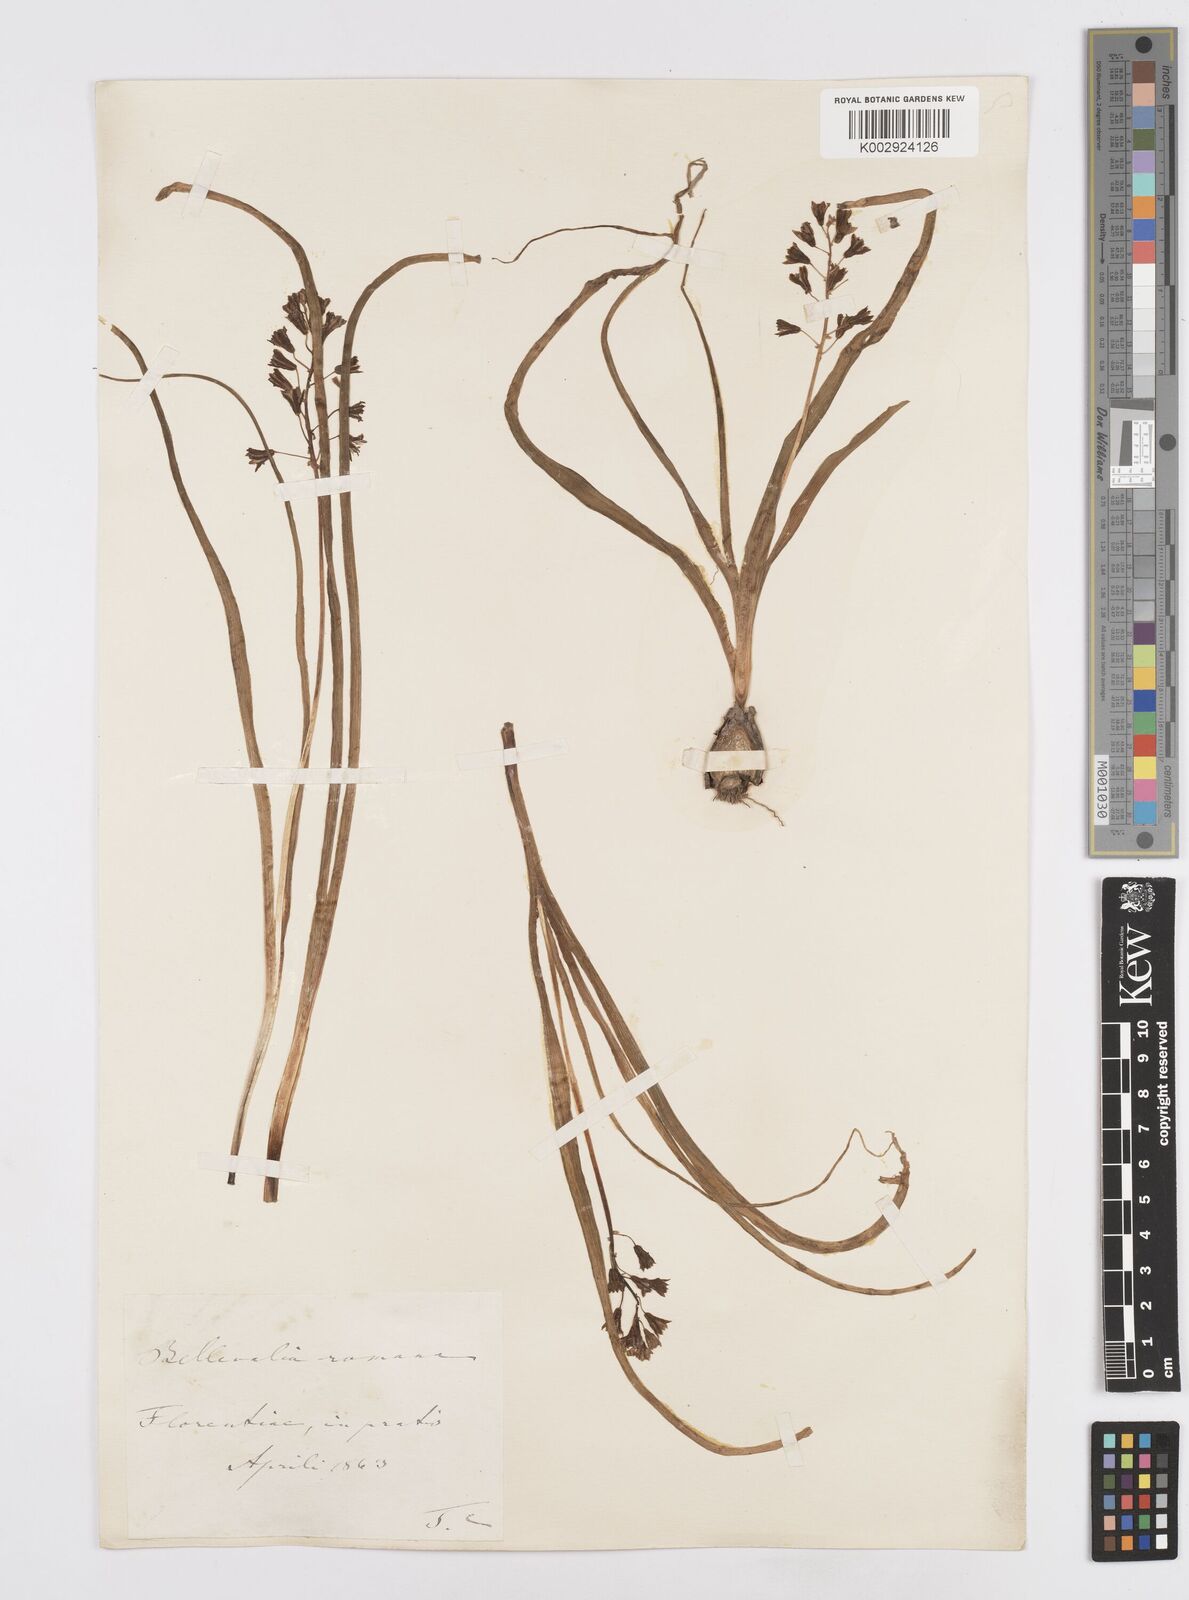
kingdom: Plantae
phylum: Tracheophyta
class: Liliopsida
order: Asparagales
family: Asparagaceae
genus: Bellevalia
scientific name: Bellevalia
